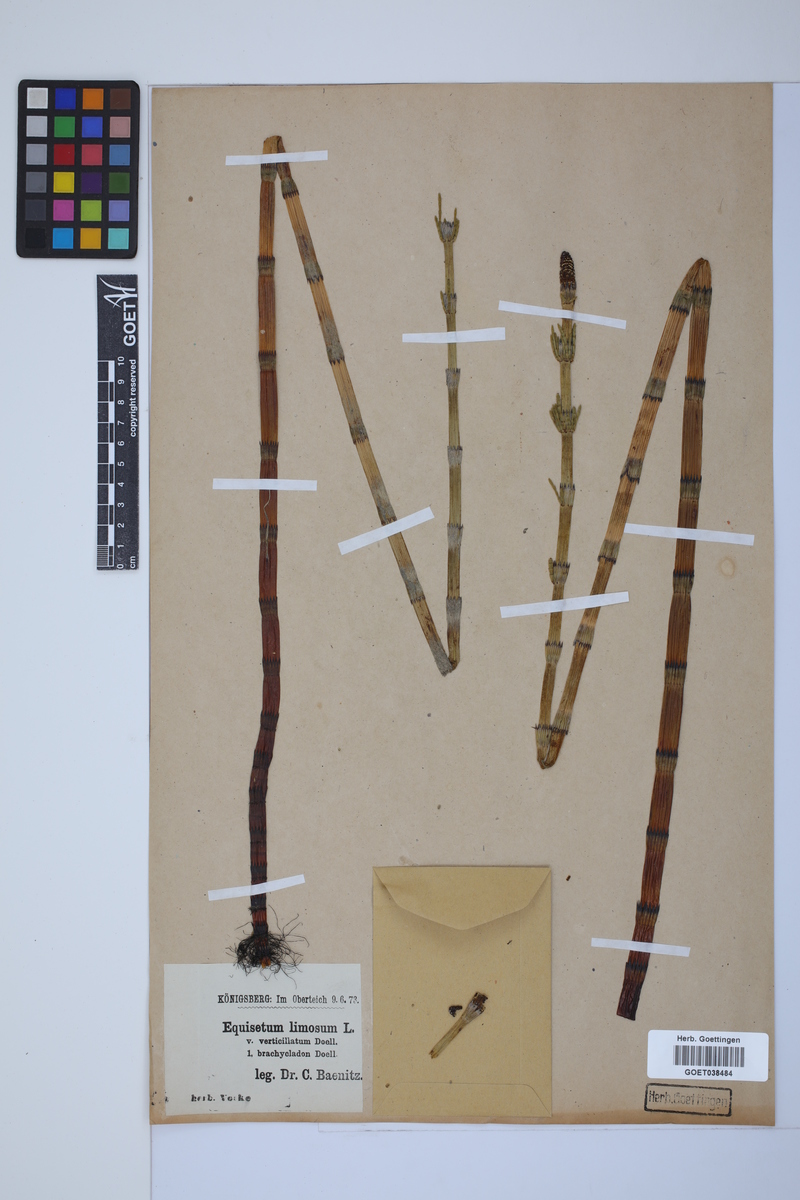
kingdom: Plantae
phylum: Tracheophyta
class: Polypodiopsida
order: Equisetales
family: Equisetaceae
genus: Equisetum
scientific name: Equisetum fluviatile
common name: Water horsetail
